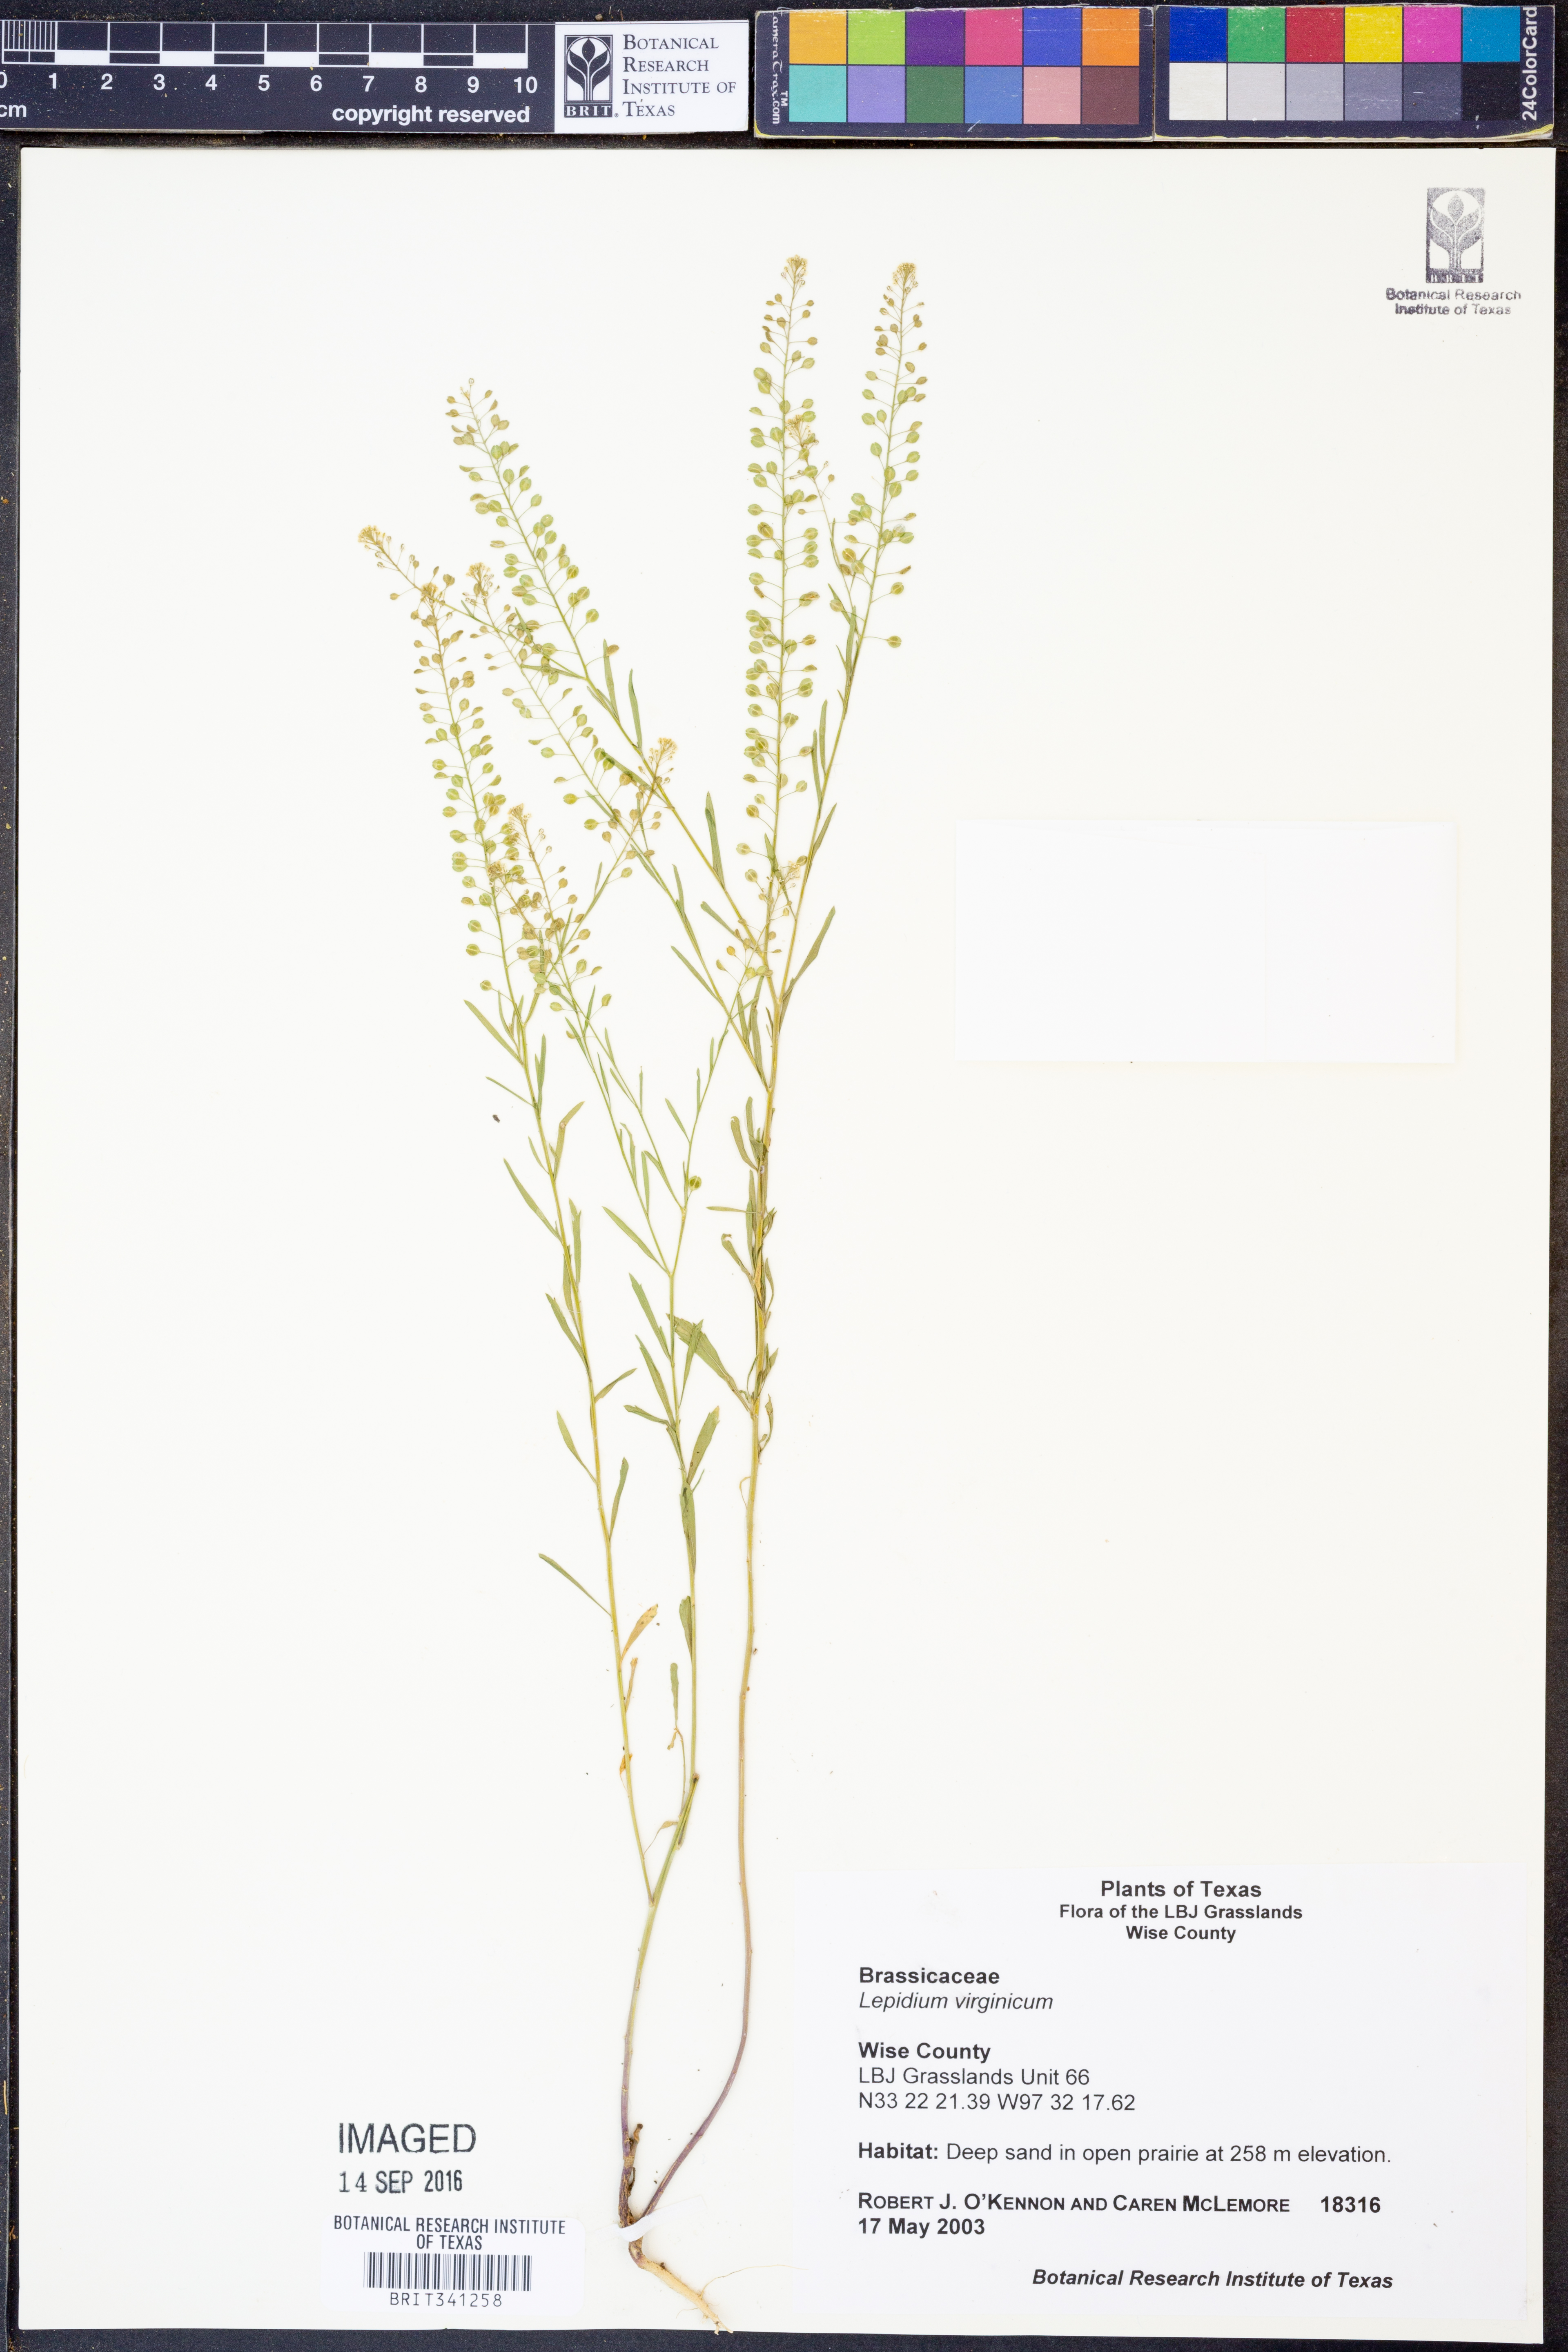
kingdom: Plantae
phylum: Tracheophyta
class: Magnoliopsida
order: Brassicales
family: Brassicaceae
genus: Lepidium
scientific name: Lepidium virginicum
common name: Least pepperwort
